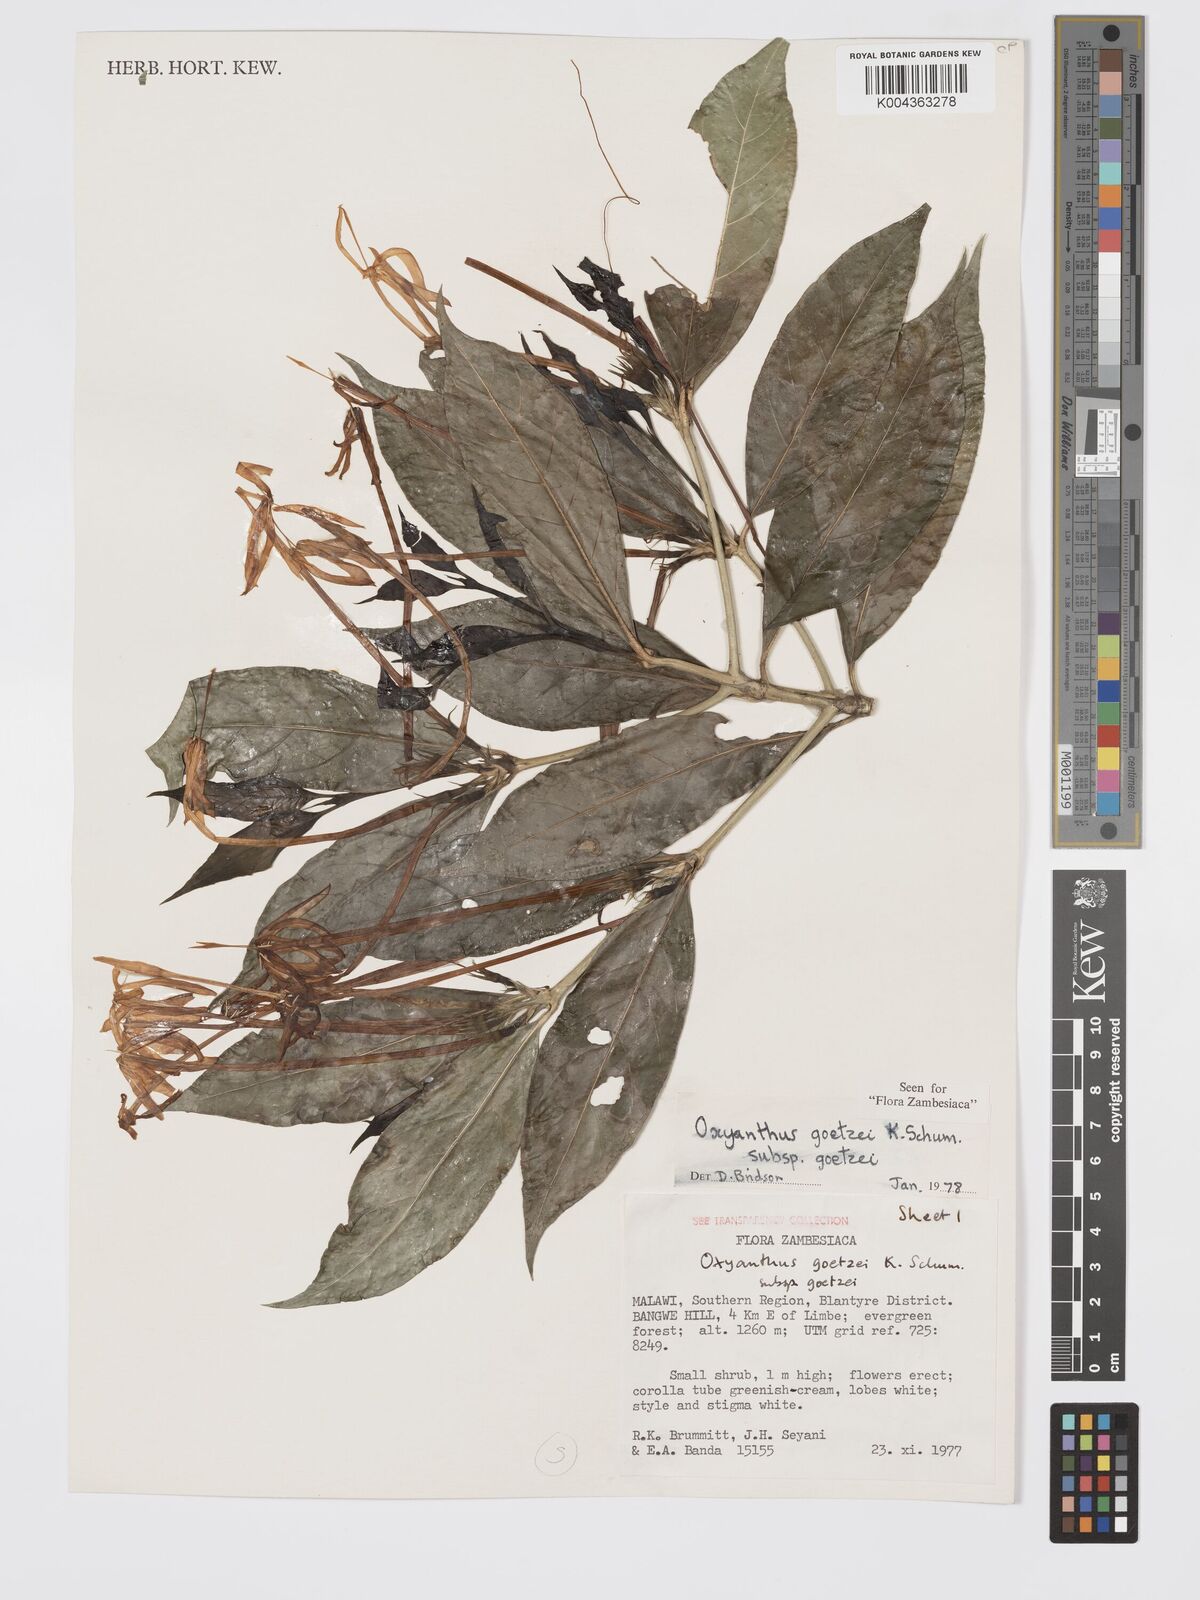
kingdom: Plantae
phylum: Tracheophyta
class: Magnoliopsida
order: Gentianales
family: Rubiaceae
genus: Oxyanthus
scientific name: Oxyanthus goetzei
